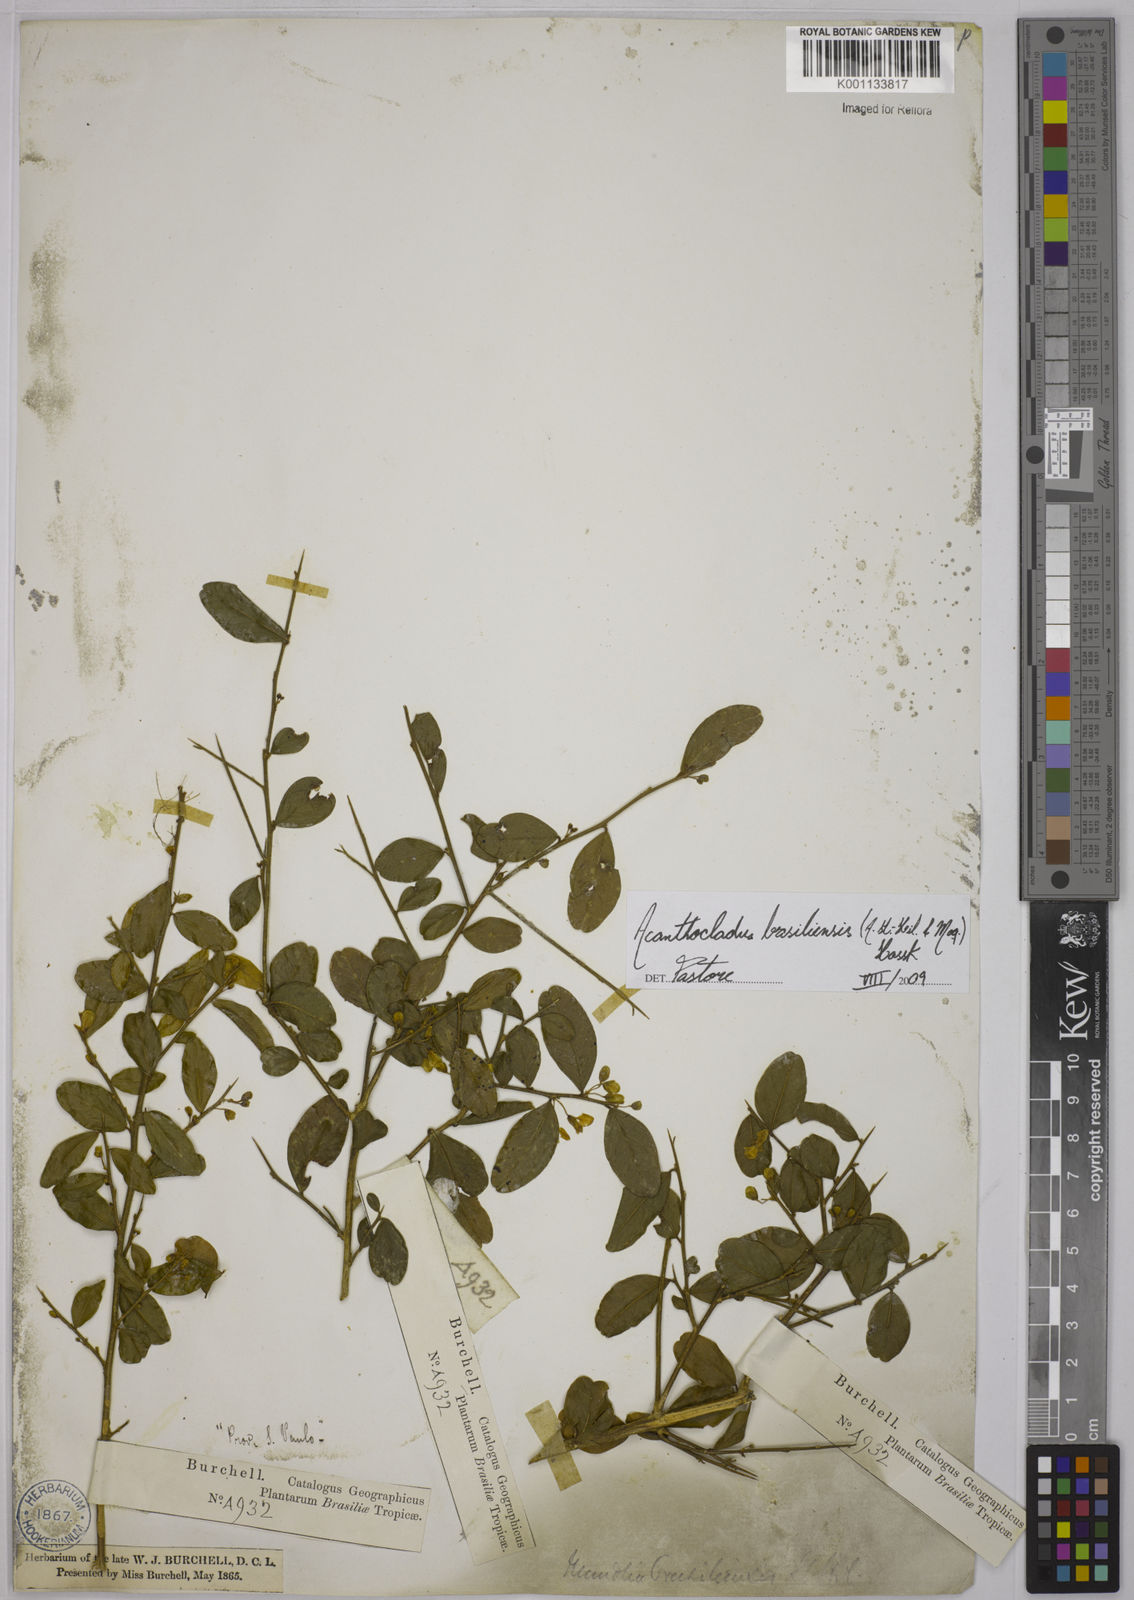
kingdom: Plantae
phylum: Tracheophyta
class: Magnoliopsida
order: Fabales
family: Polygalaceae
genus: Acanthocladus
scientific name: Acanthocladus brasiliensis
